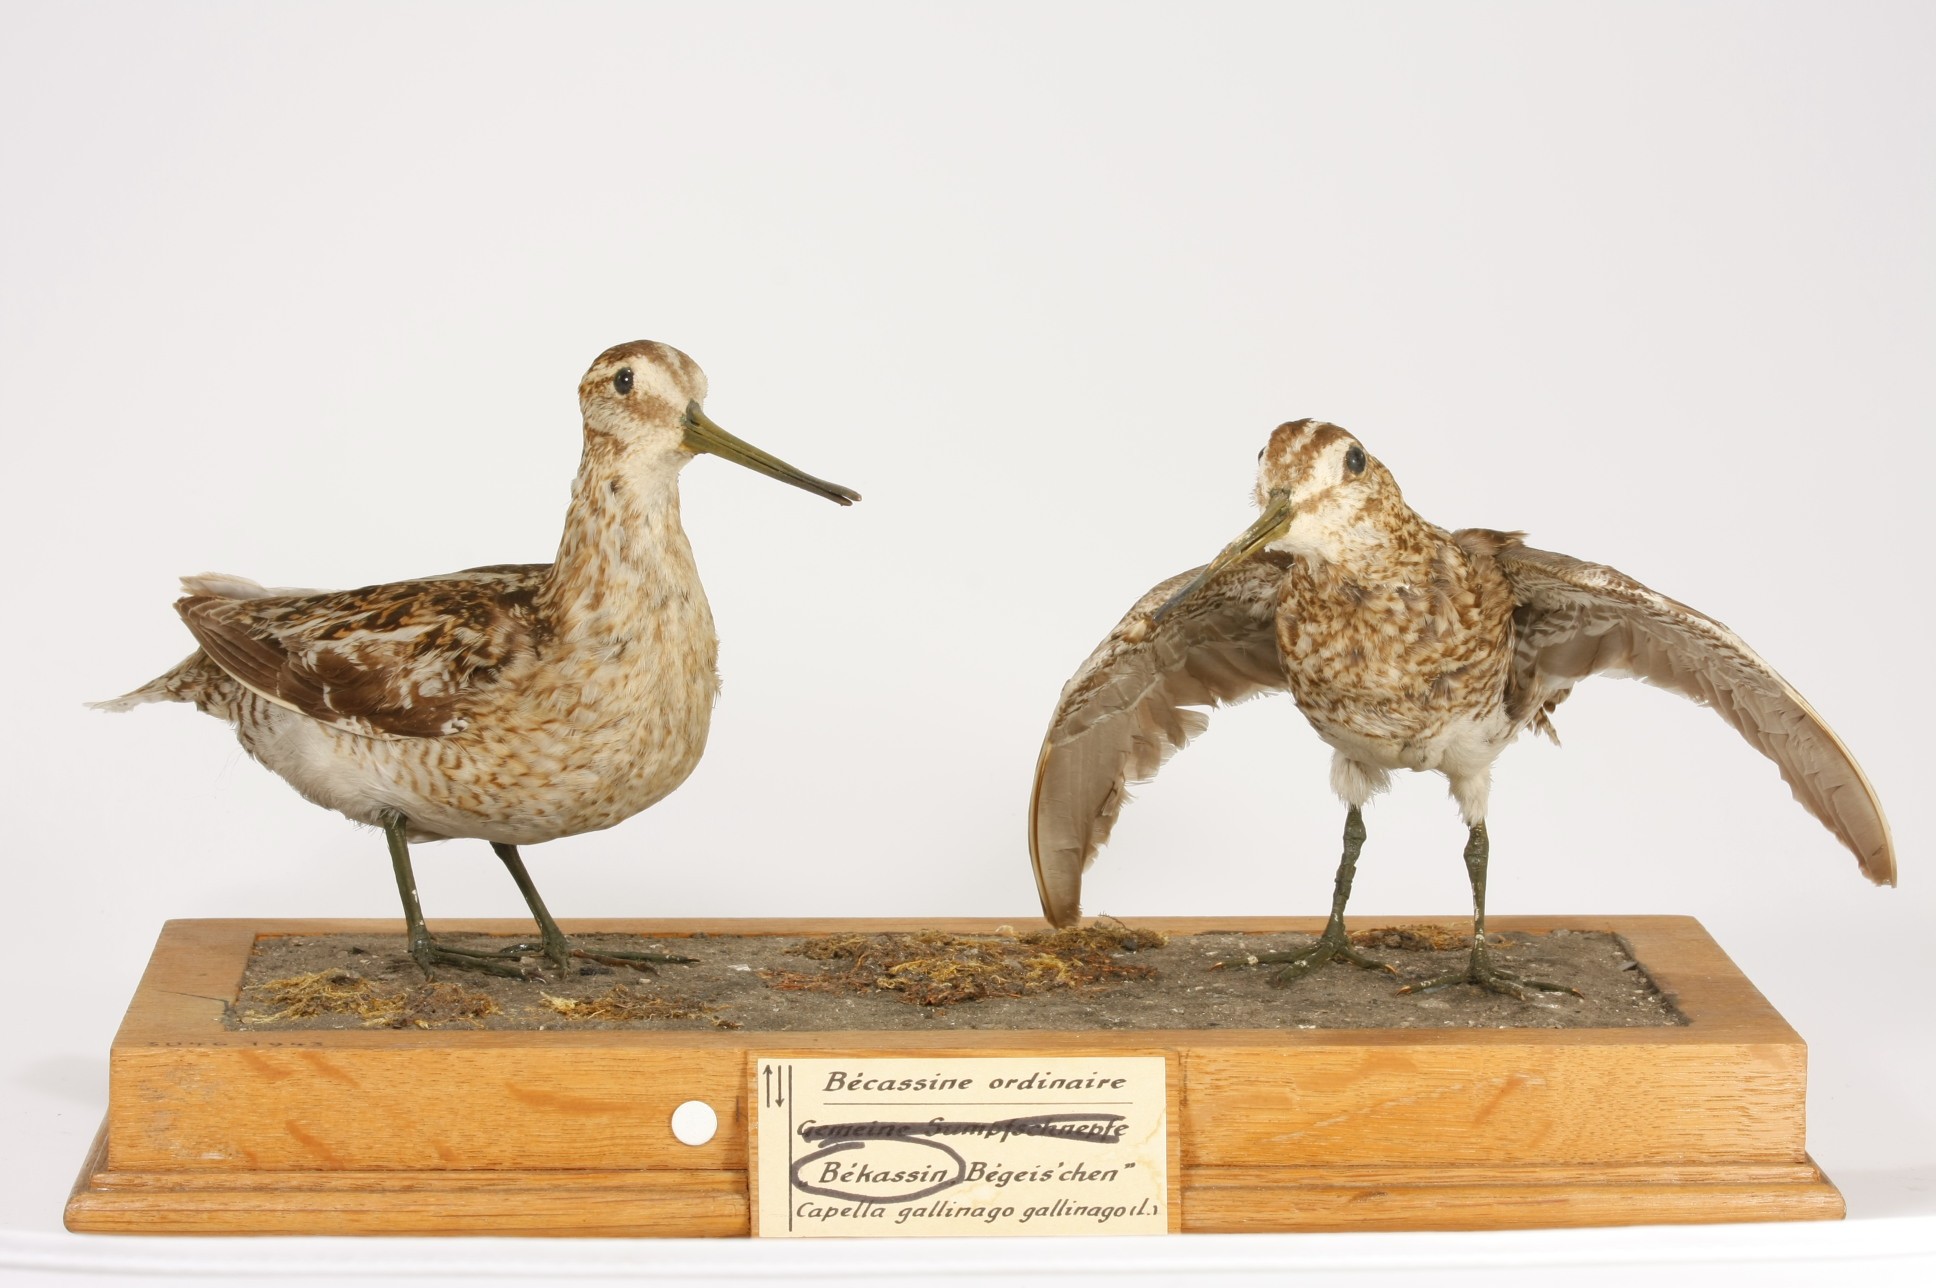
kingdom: Animalia
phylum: Chordata
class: Aves
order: Charadriiformes
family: Scolopacidae
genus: Gallinago
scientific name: Gallinago gallinago
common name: Common snipe
